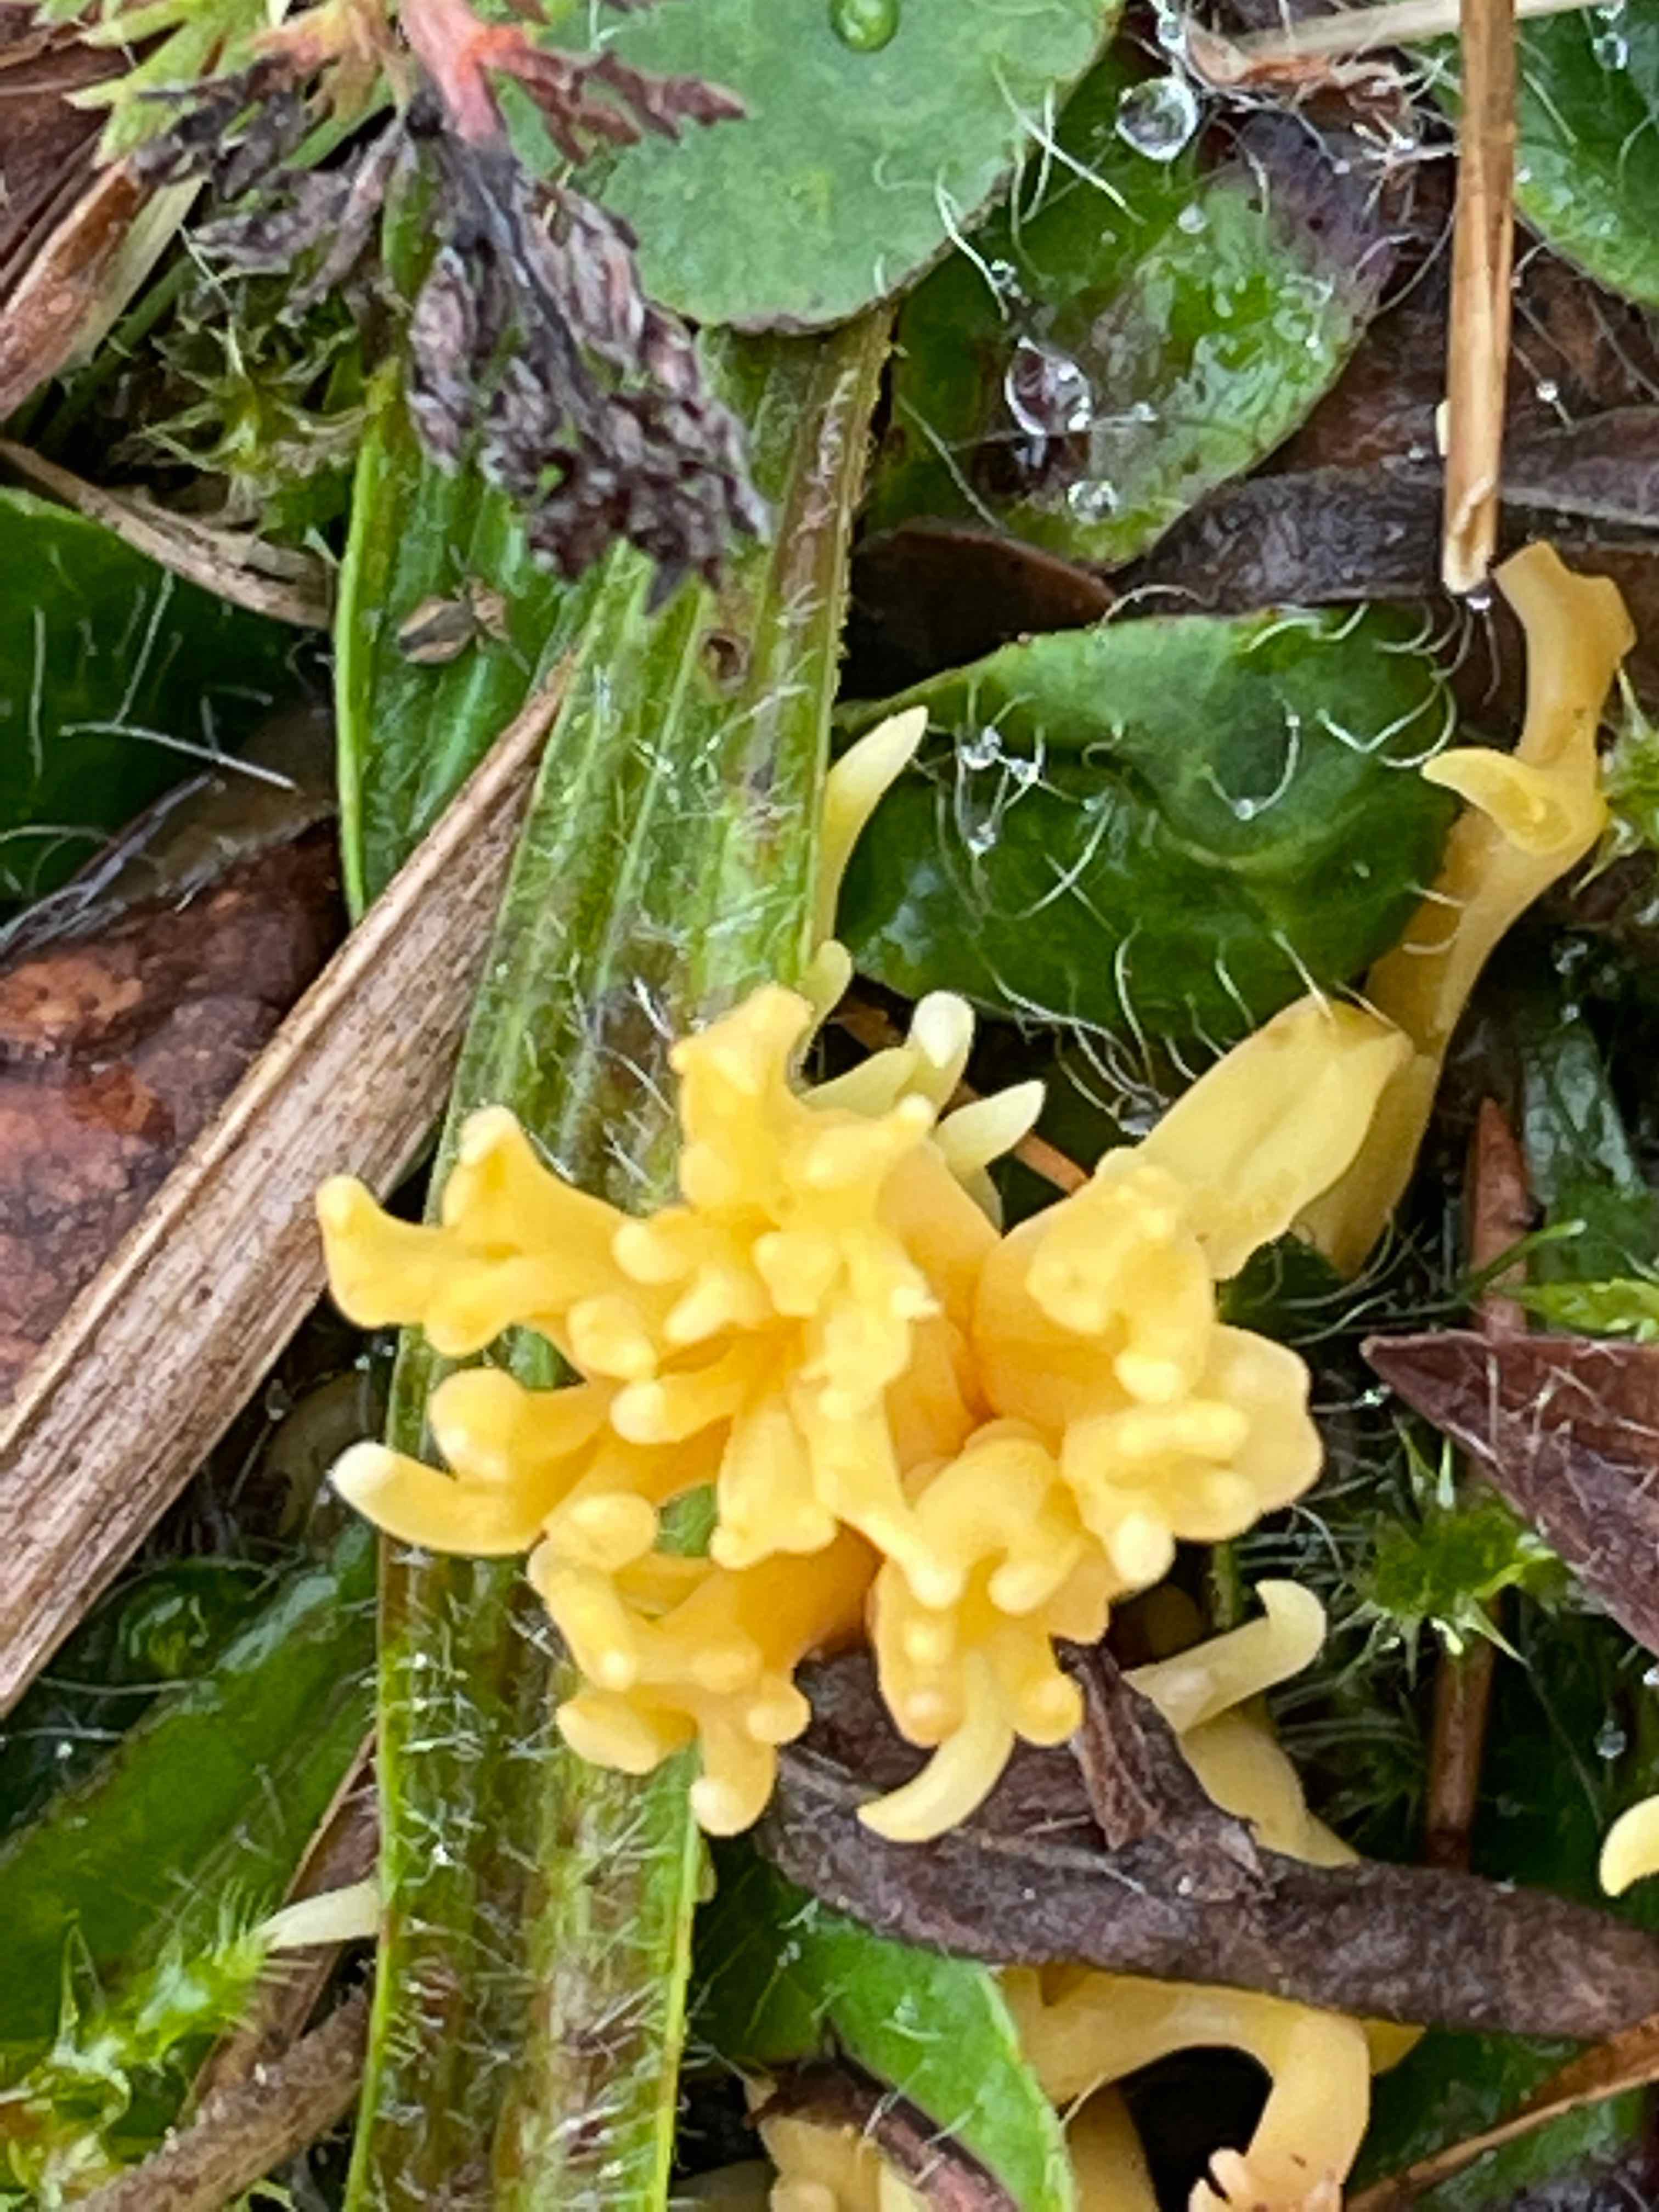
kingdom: Fungi
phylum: Basidiomycota
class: Agaricomycetes
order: Agaricales
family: Clavariaceae
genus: Clavulinopsis
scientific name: Clavulinopsis corniculata
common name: eng-køllesvamp
